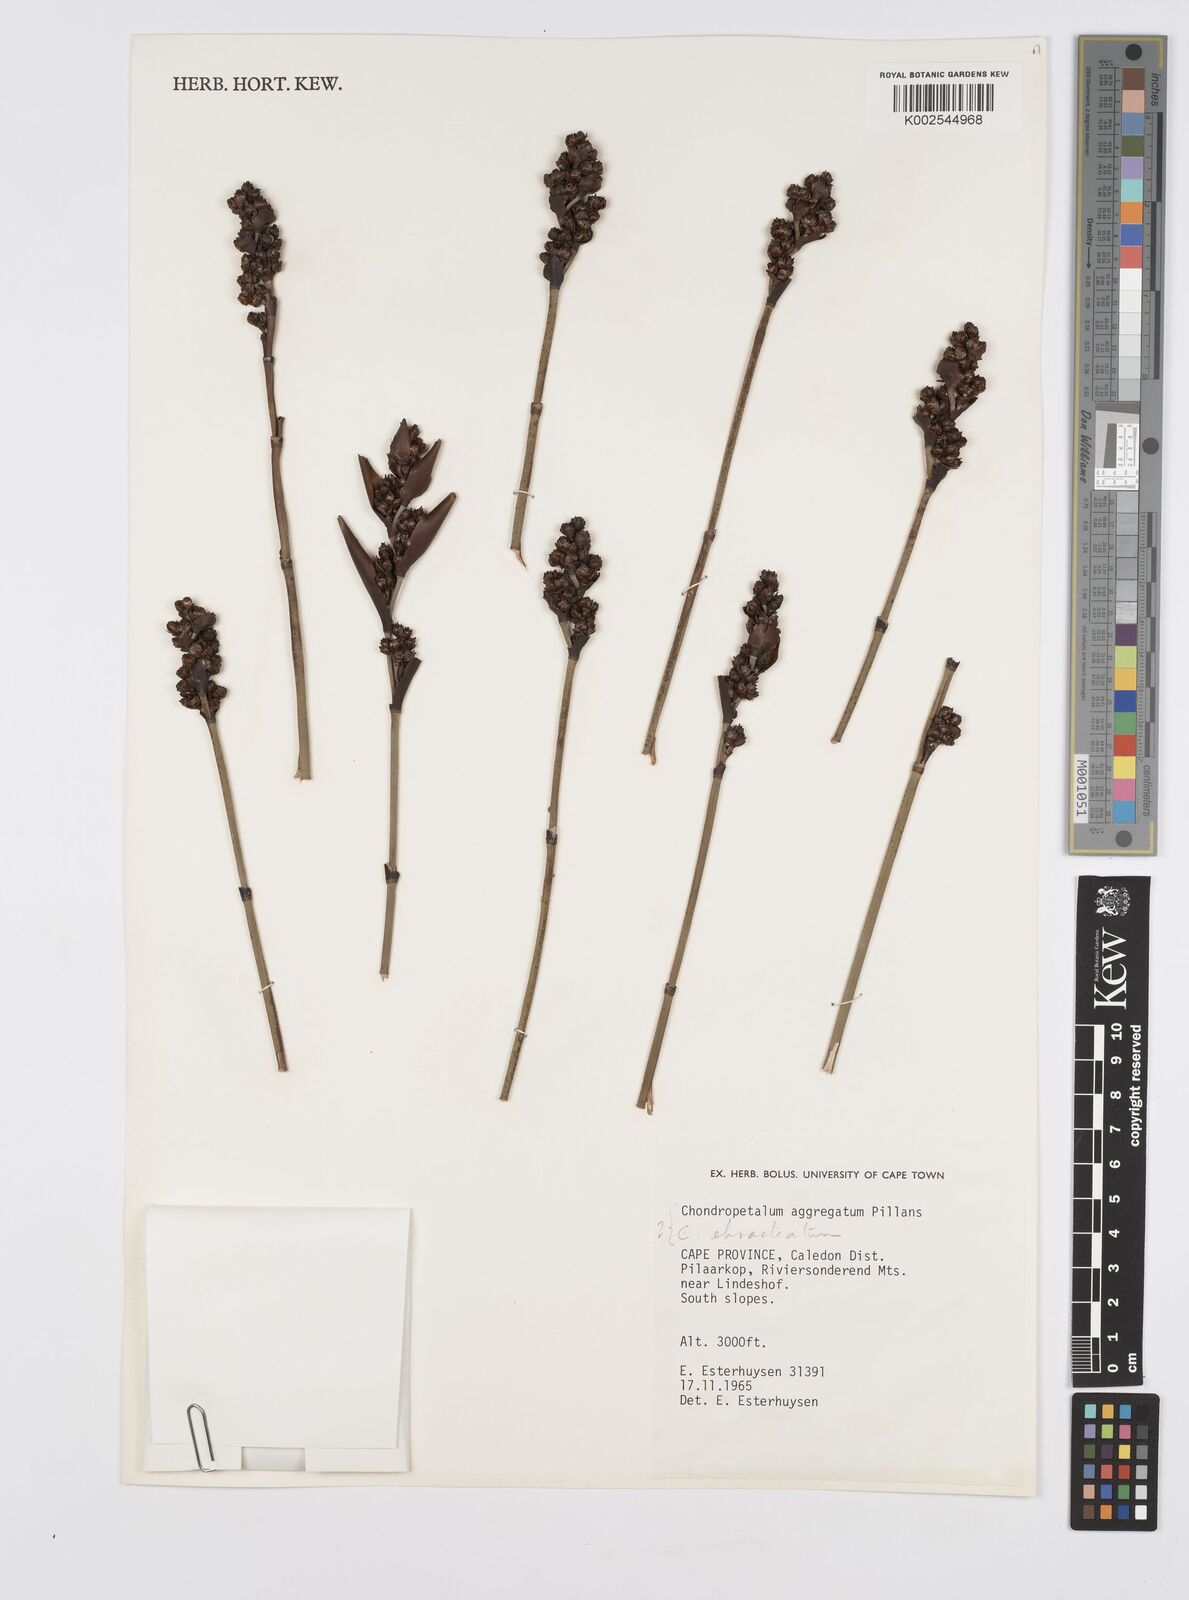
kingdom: Plantae
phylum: Tracheophyta
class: Liliopsida
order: Poales
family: Restionaceae
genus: Elegia
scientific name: Elegia aggregata
